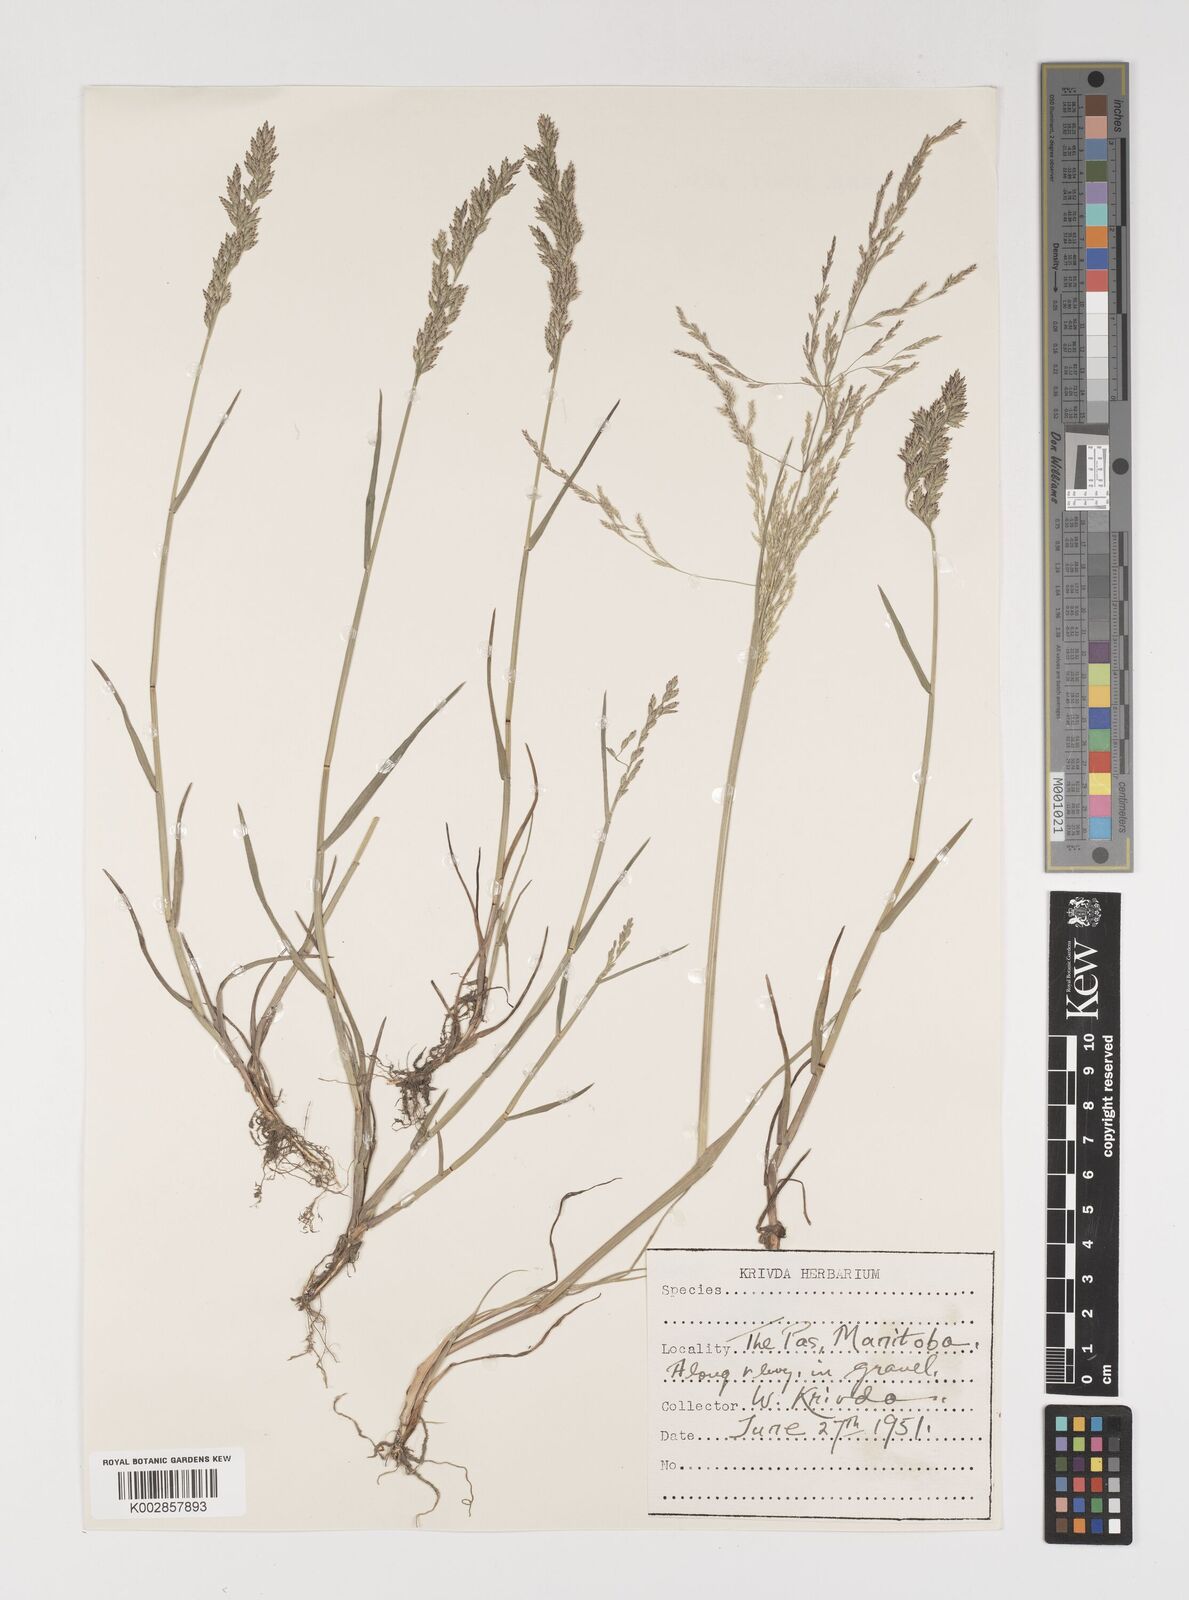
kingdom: Plantae
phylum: Tracheophyta
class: Liliopsida
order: Poales
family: Poaceae
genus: Puccinellia
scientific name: Puccinellia
